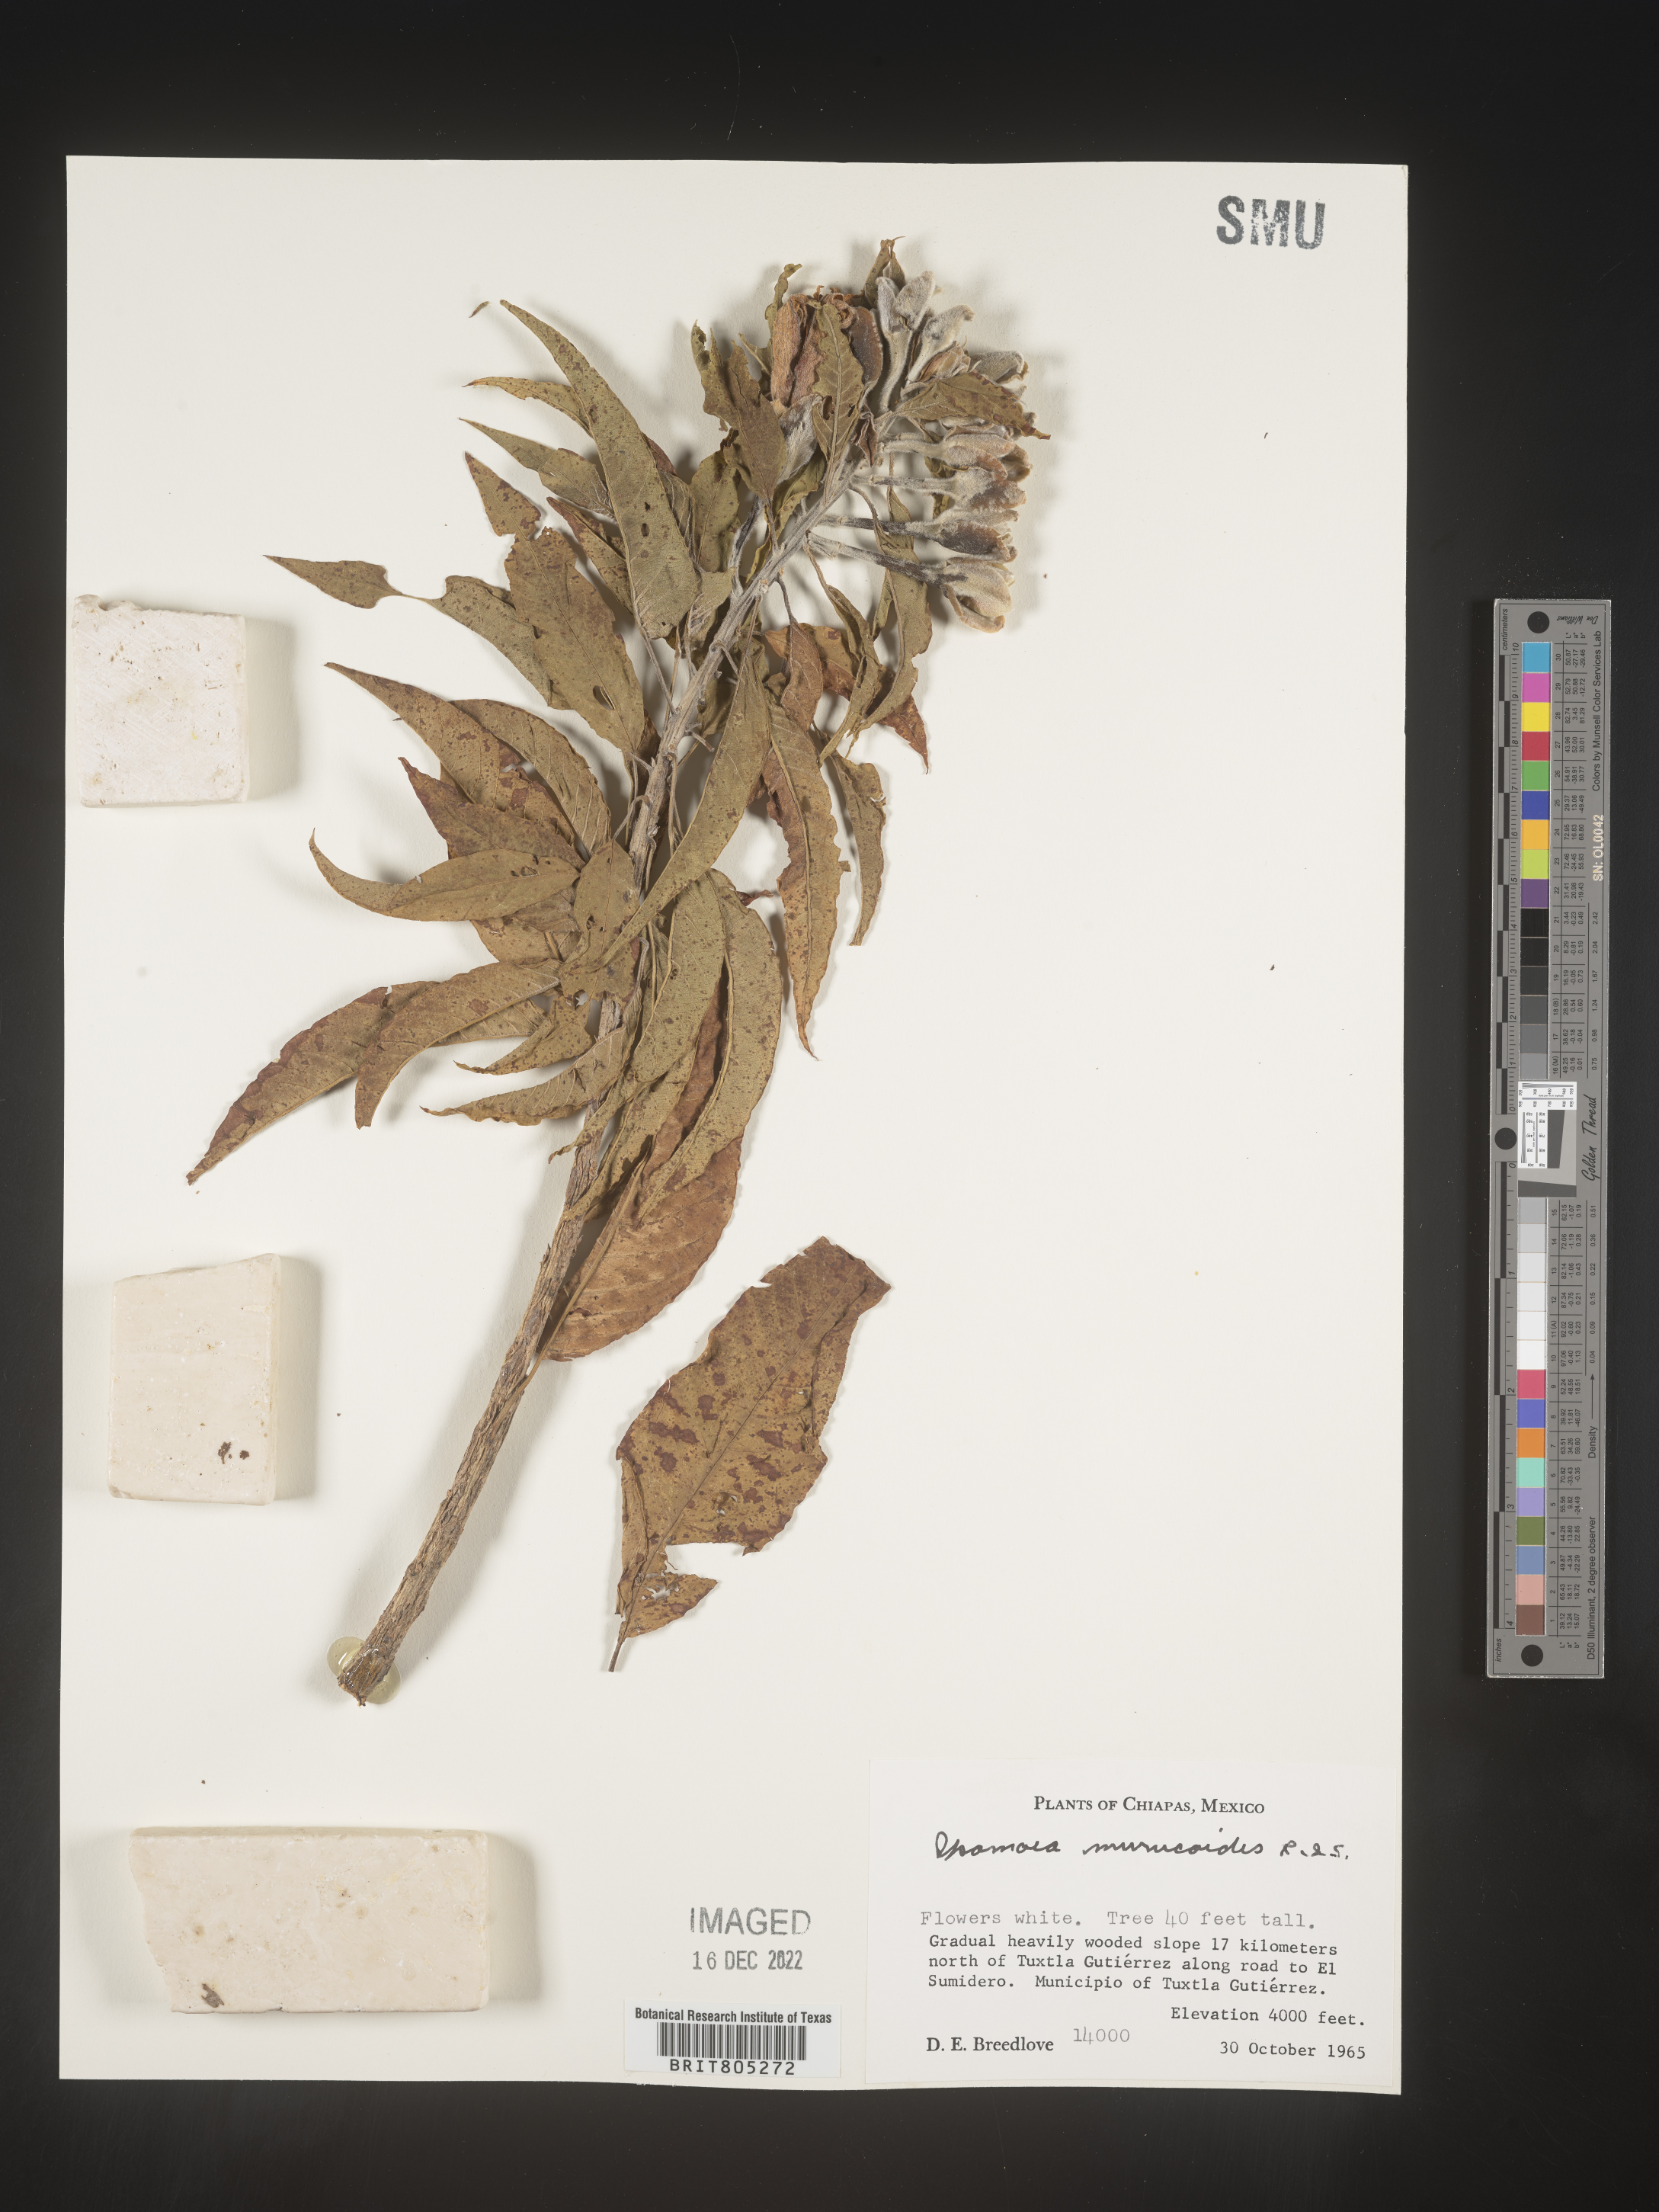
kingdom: Plantae
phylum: Tracheophyta
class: Magnoliopsida
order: Solanales
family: Convolvulaceae
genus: Ipomoea
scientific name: Ipomoea
